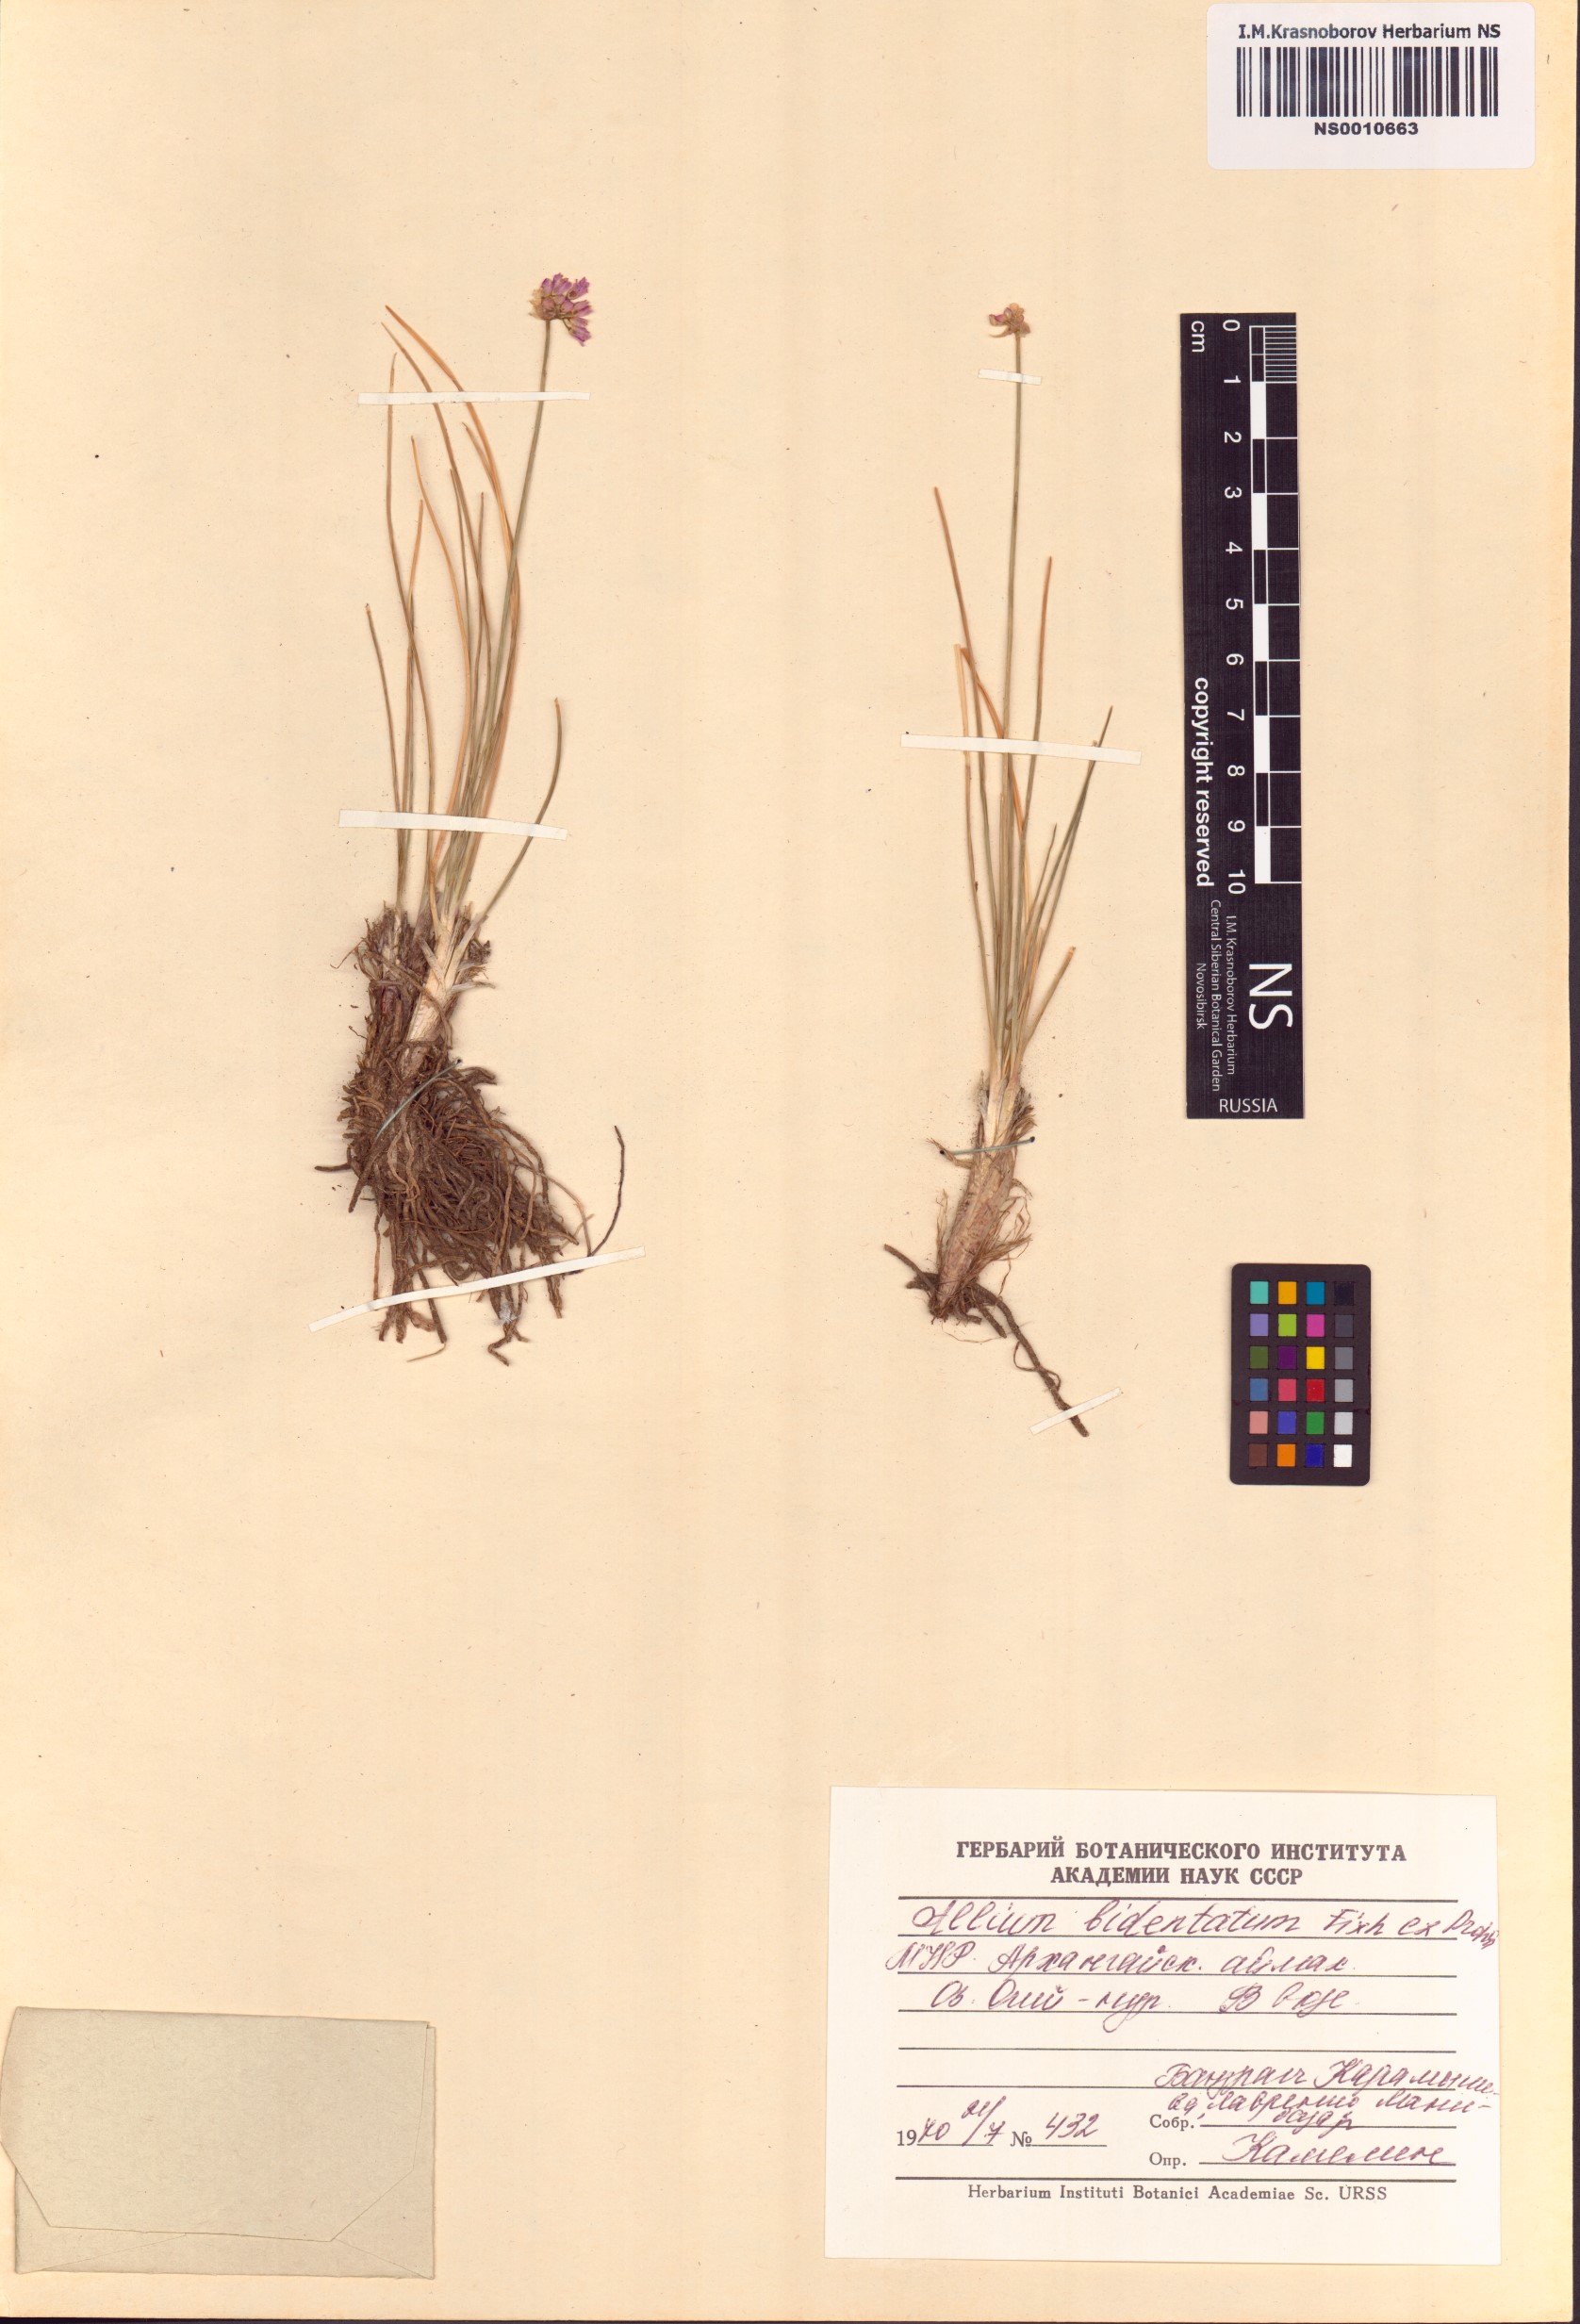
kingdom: Plantae
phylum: Tracheophyta
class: Liliopsida
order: Asparagales
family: Amaryllidaceae
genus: Allium
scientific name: Allium bidentatum
